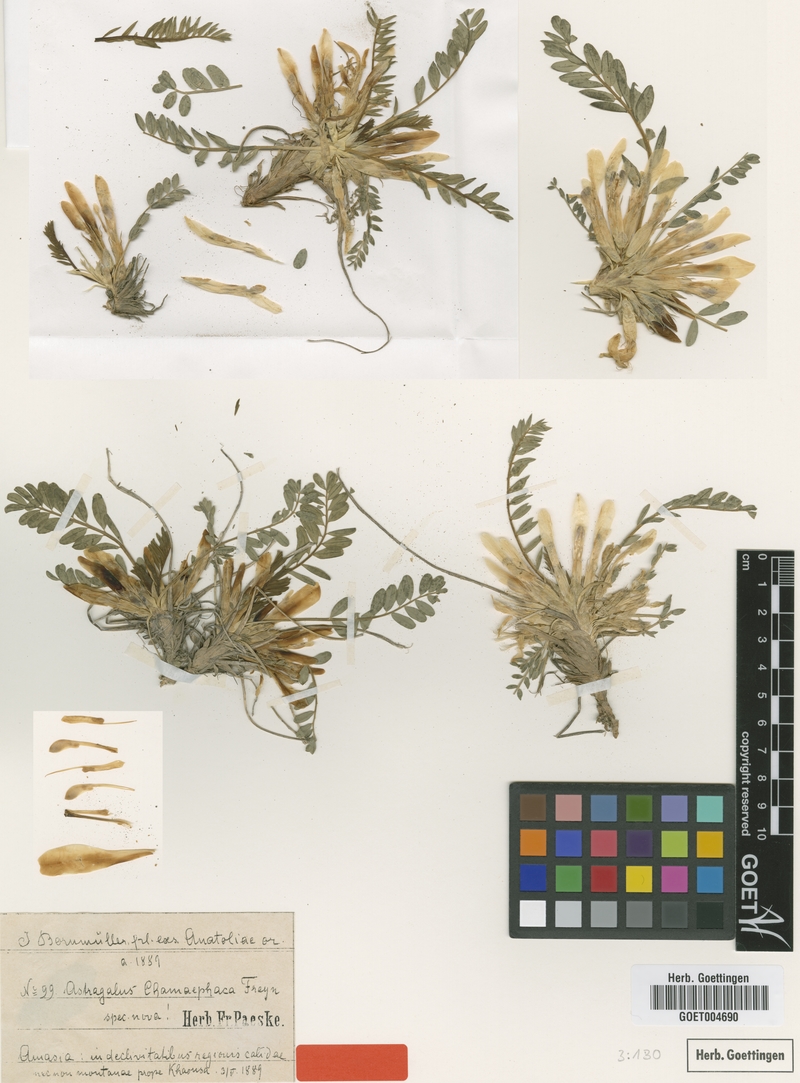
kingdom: Plantae
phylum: Tracheophyta
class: Magnoliopsida
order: Fabales
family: Fabaceae
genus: Astragalus
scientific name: Astragalus chamaephaca
